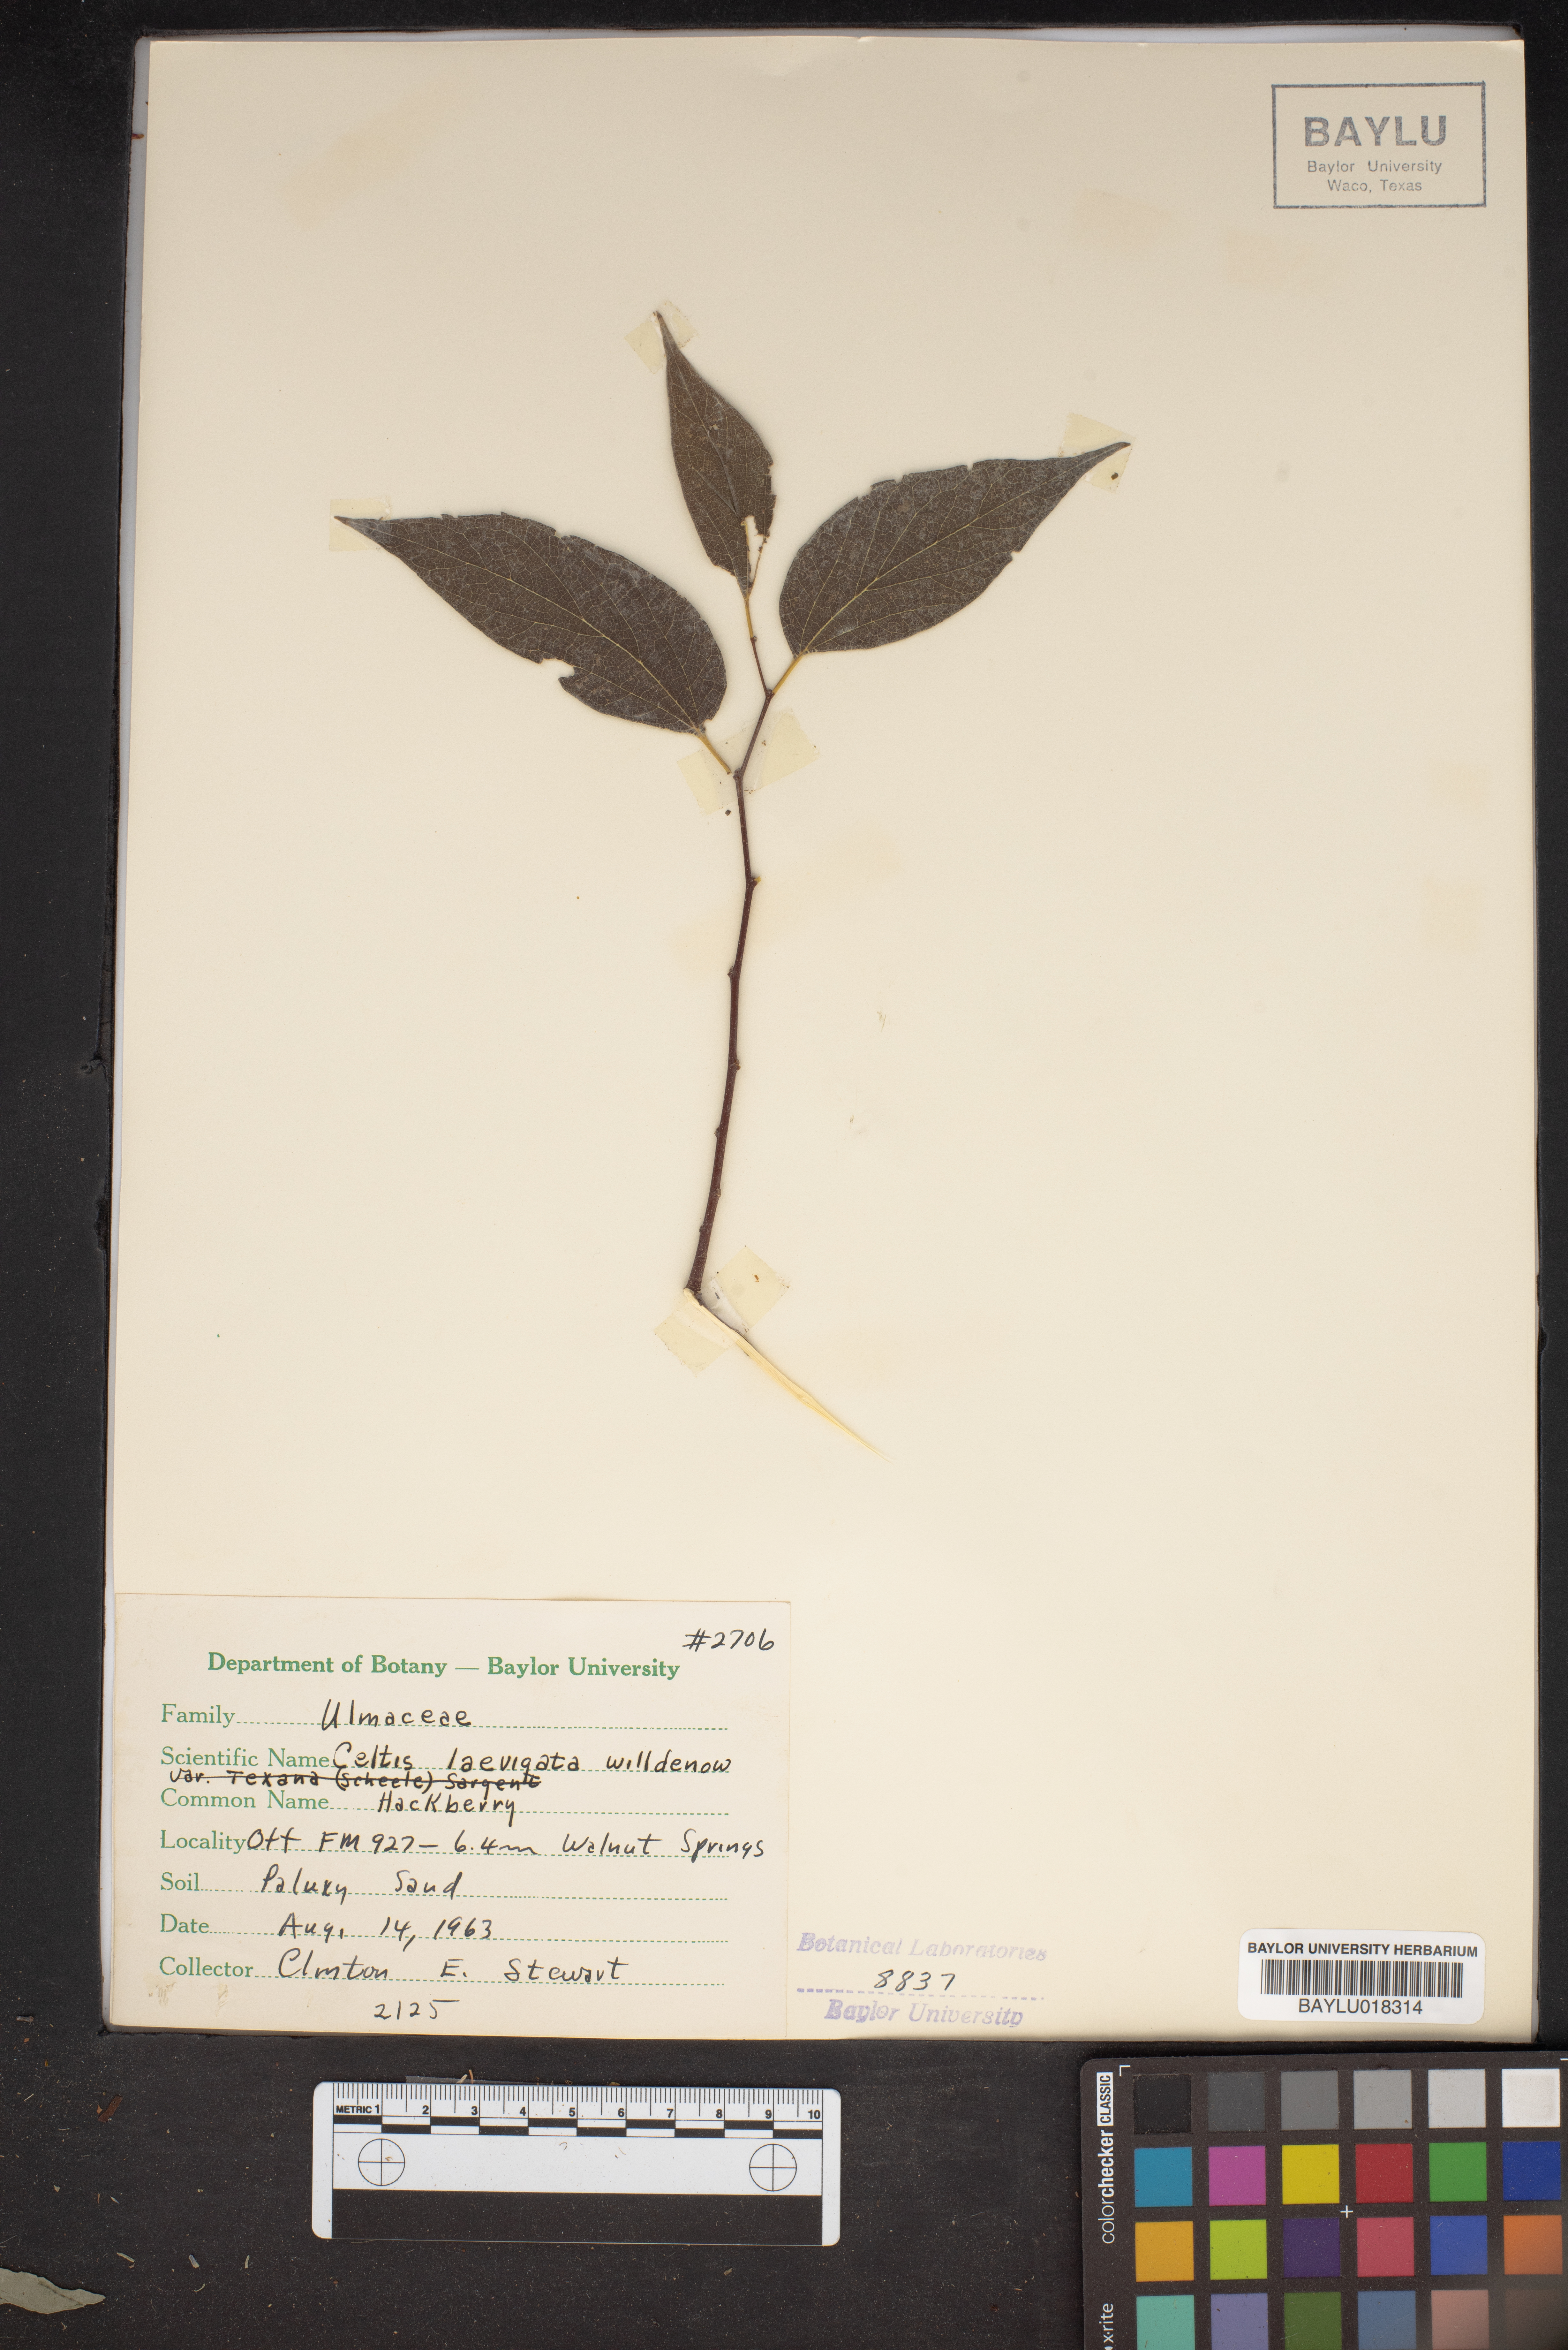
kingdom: Plantae
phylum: Tracheophyta
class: Magnoliopsida
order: Rosales
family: Cannabaceae
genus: Celtis
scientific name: Celtis laevigata
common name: Sugarberry
